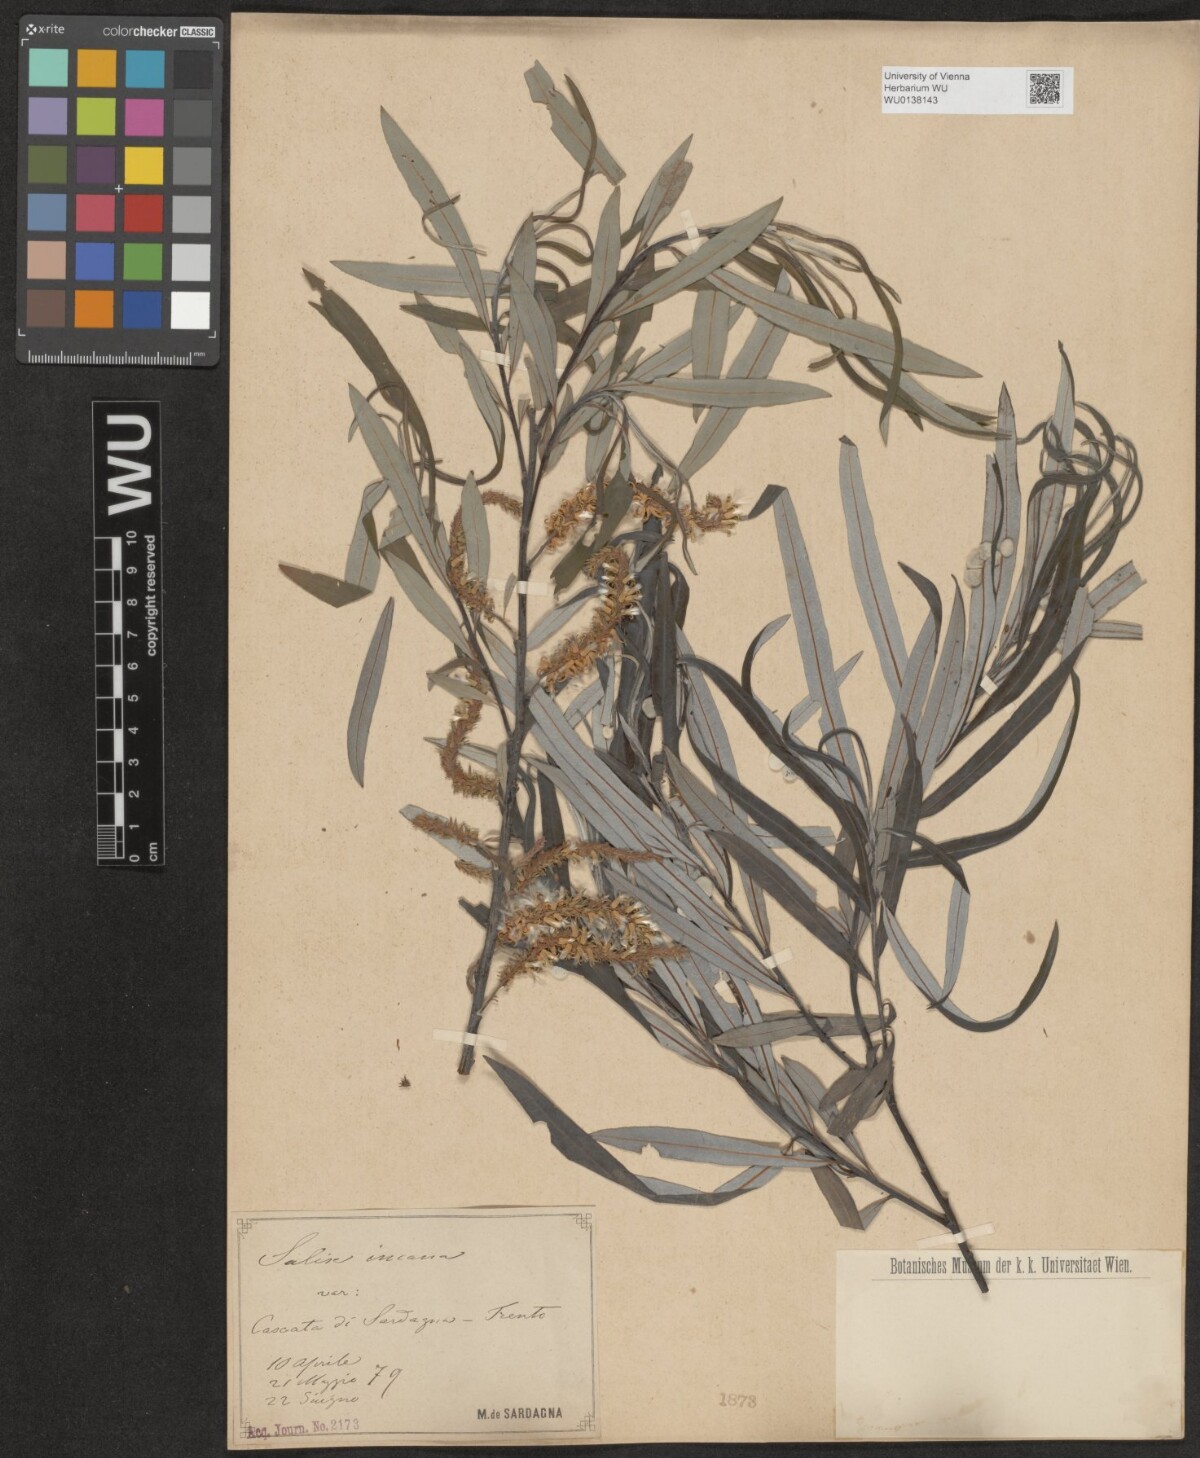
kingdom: Plantae
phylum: Tracheophyta
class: Magnoliopsida
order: Malpighiales
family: Salicaceae
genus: Salix
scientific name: Salix eleagnos
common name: Elaeagnus willow
